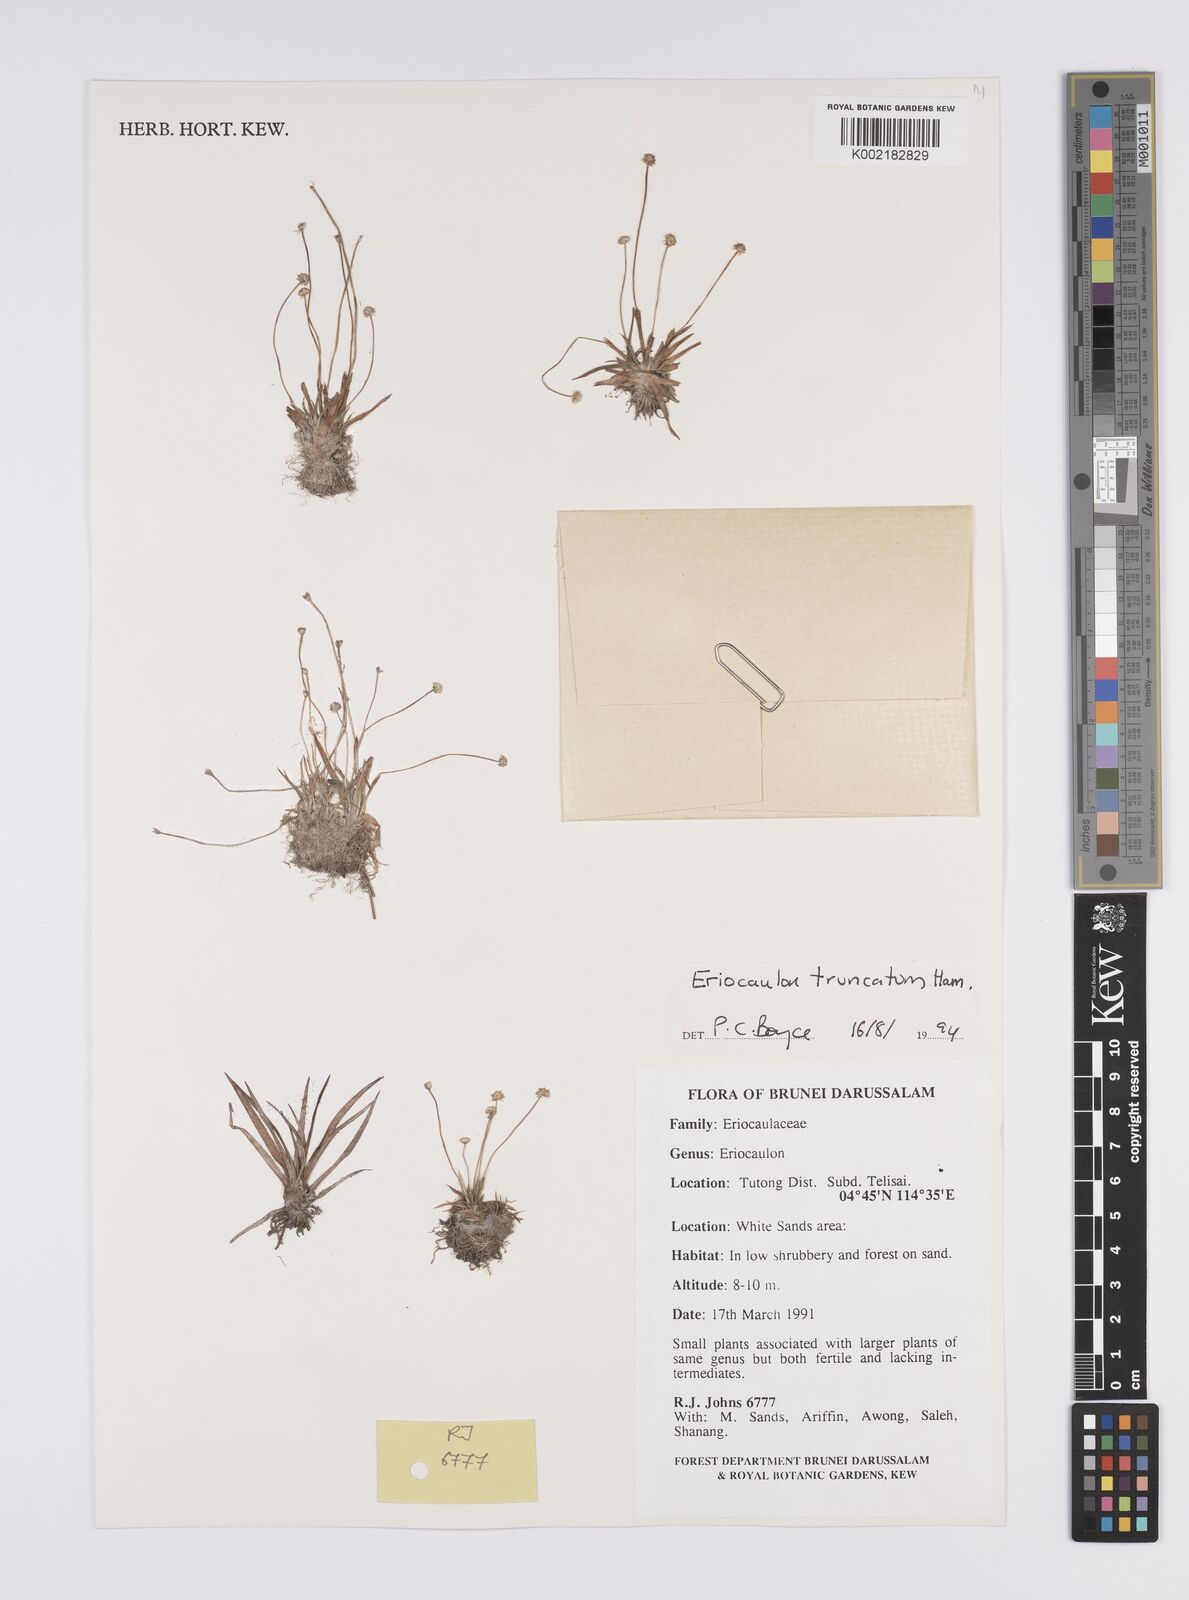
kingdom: Plantae
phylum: Tracheophyta
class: Liliopsida
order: Poales
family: Eriocaulaceae
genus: Eriocaulon
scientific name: Eriocaulon truncatum
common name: Short pipe-wort
